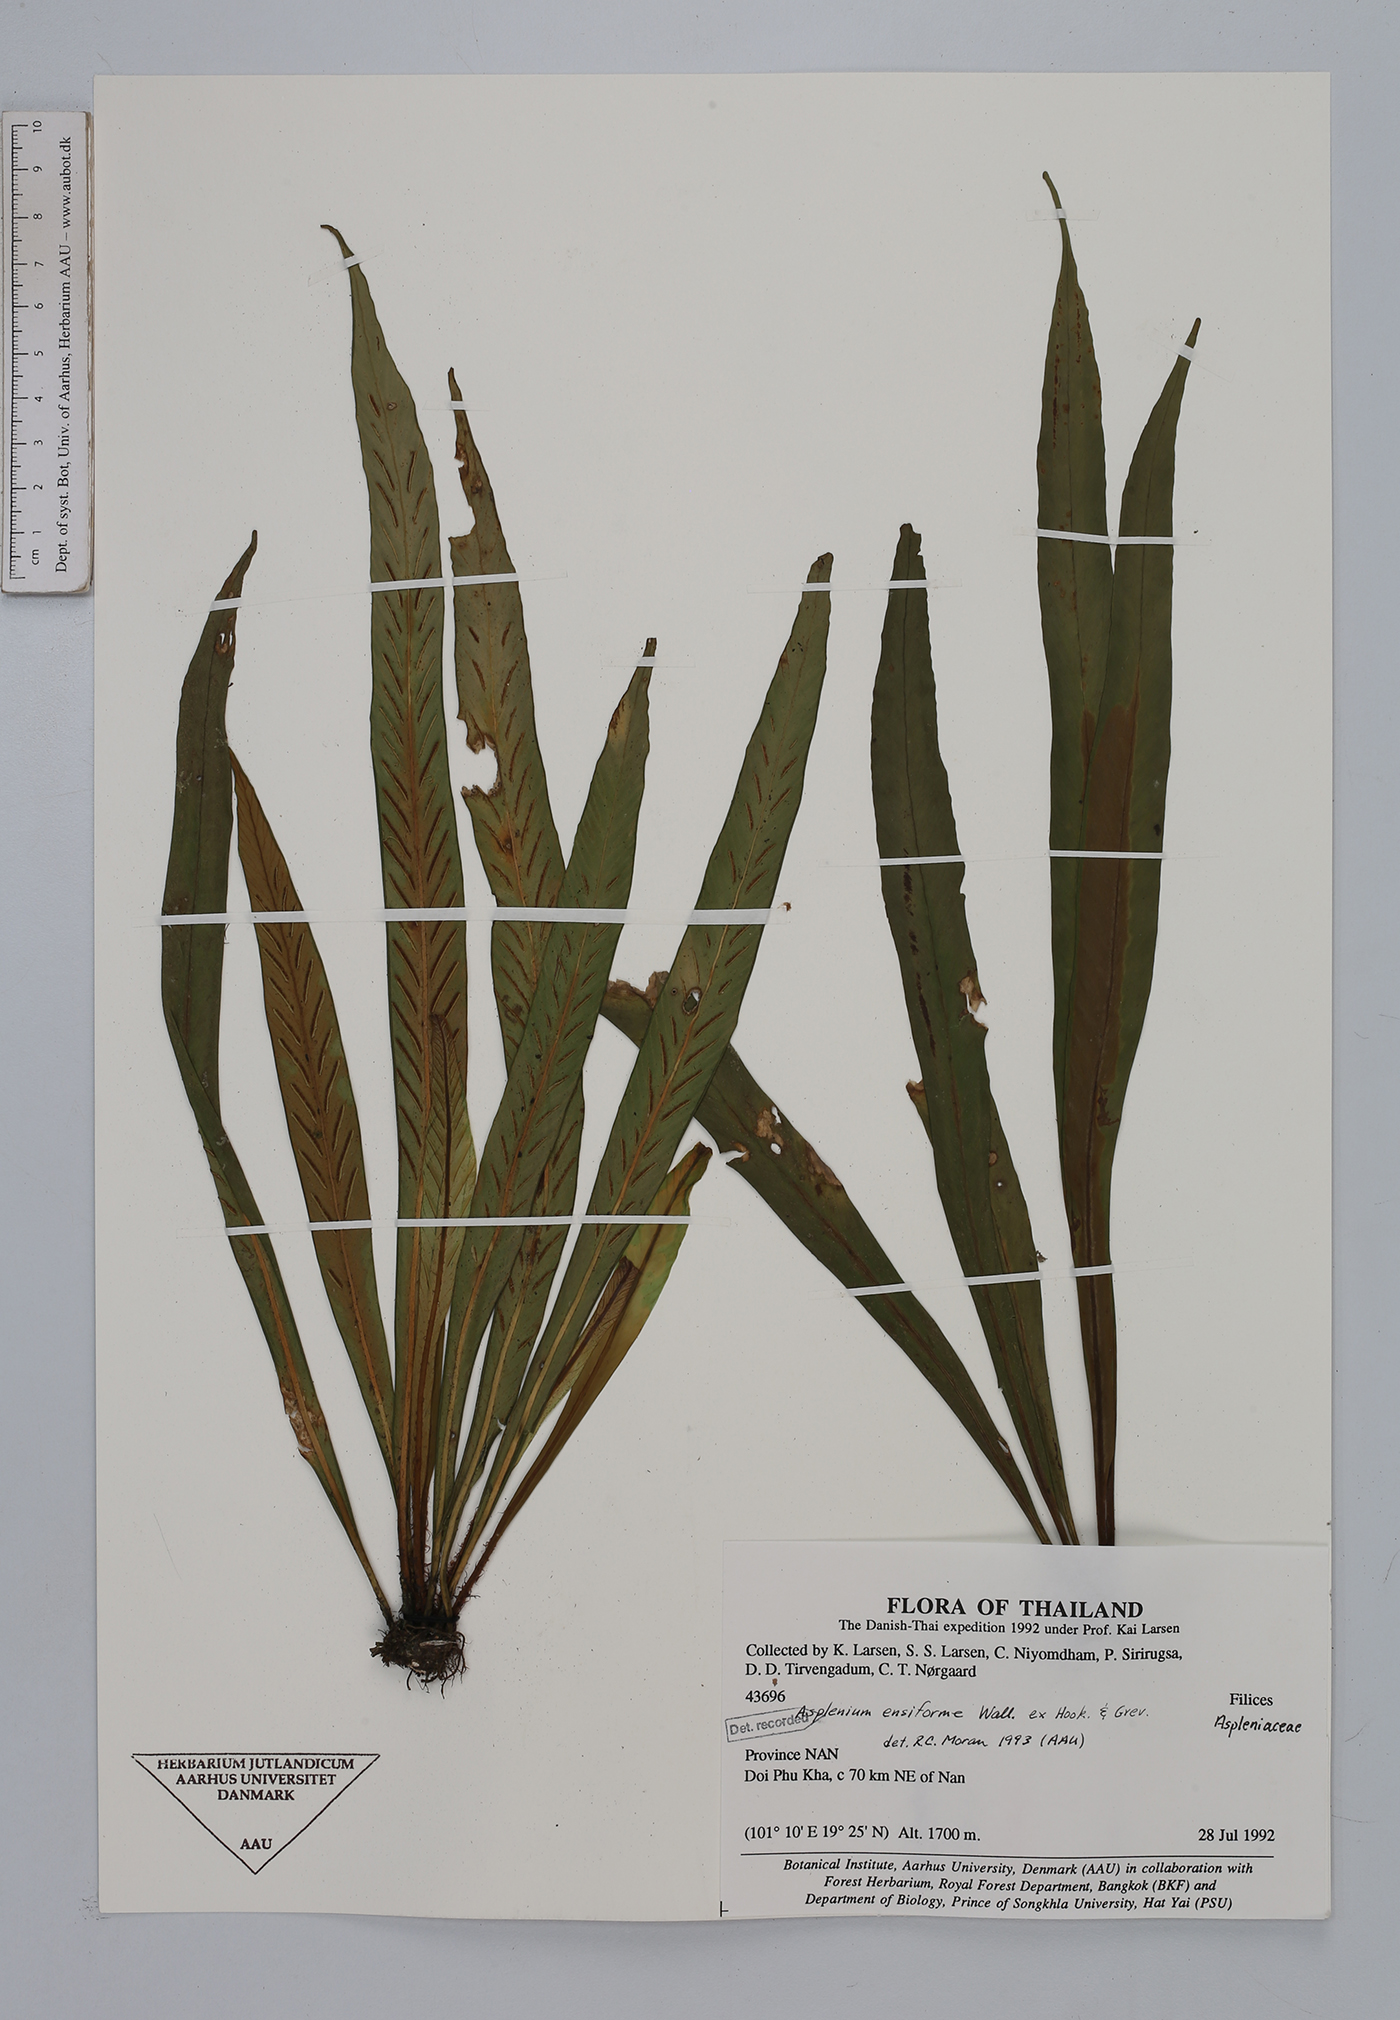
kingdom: Plantae
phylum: Tracheophyta
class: Polypodiopsida
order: Polypodiales
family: Aspleniaceae
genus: Asplenium
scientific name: Asplenium ensiforme
